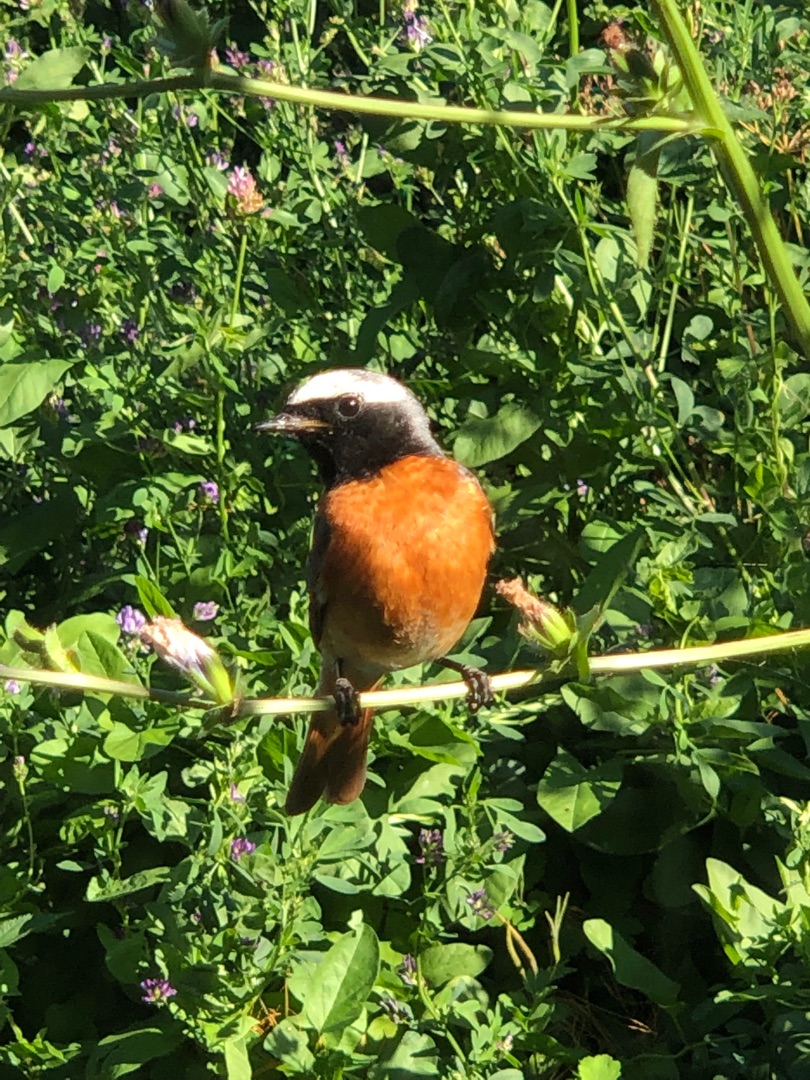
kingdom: Animalia
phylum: Chordata
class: Aves
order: Passeriformes
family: Muscicapidae
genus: Phoenicurus
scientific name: Phoenicurus phoenicurus
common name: Rødstjert
